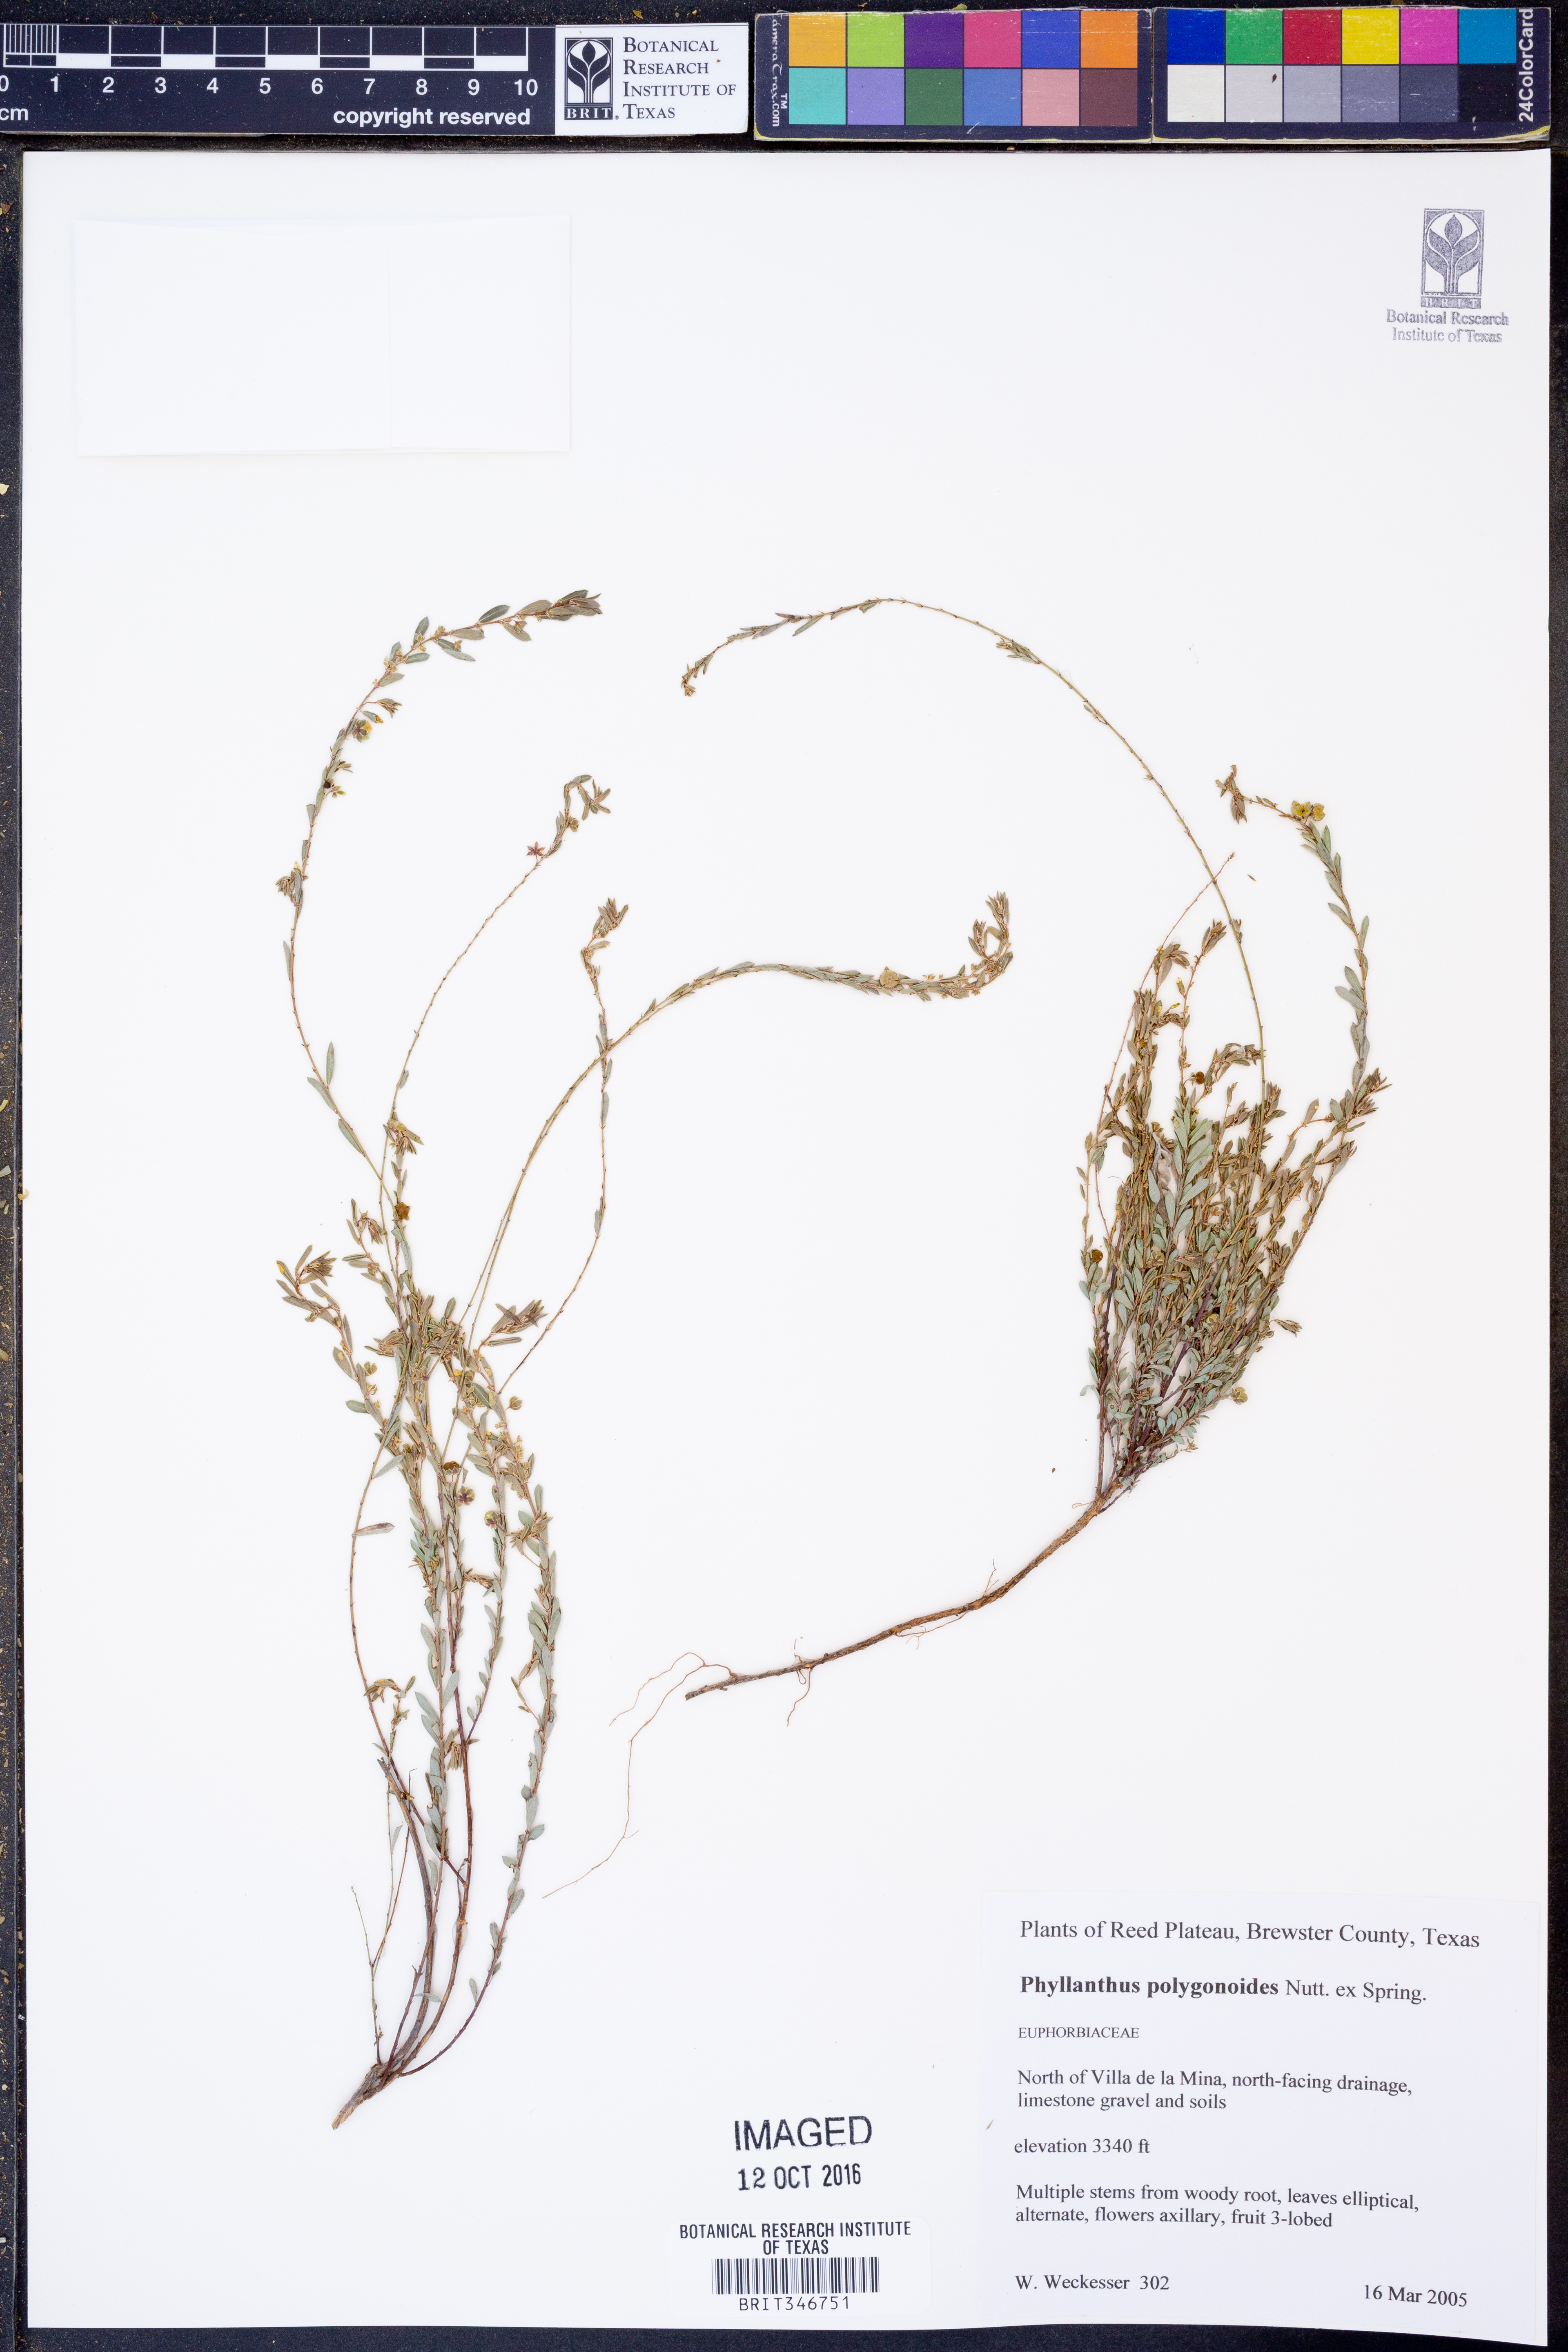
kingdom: Plantae
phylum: Tracheophyta
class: Magnoliopsida
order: Malpighiales
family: Phyllanthaceae
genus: Phyllanthus
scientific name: Phyllanthus polygonoides
